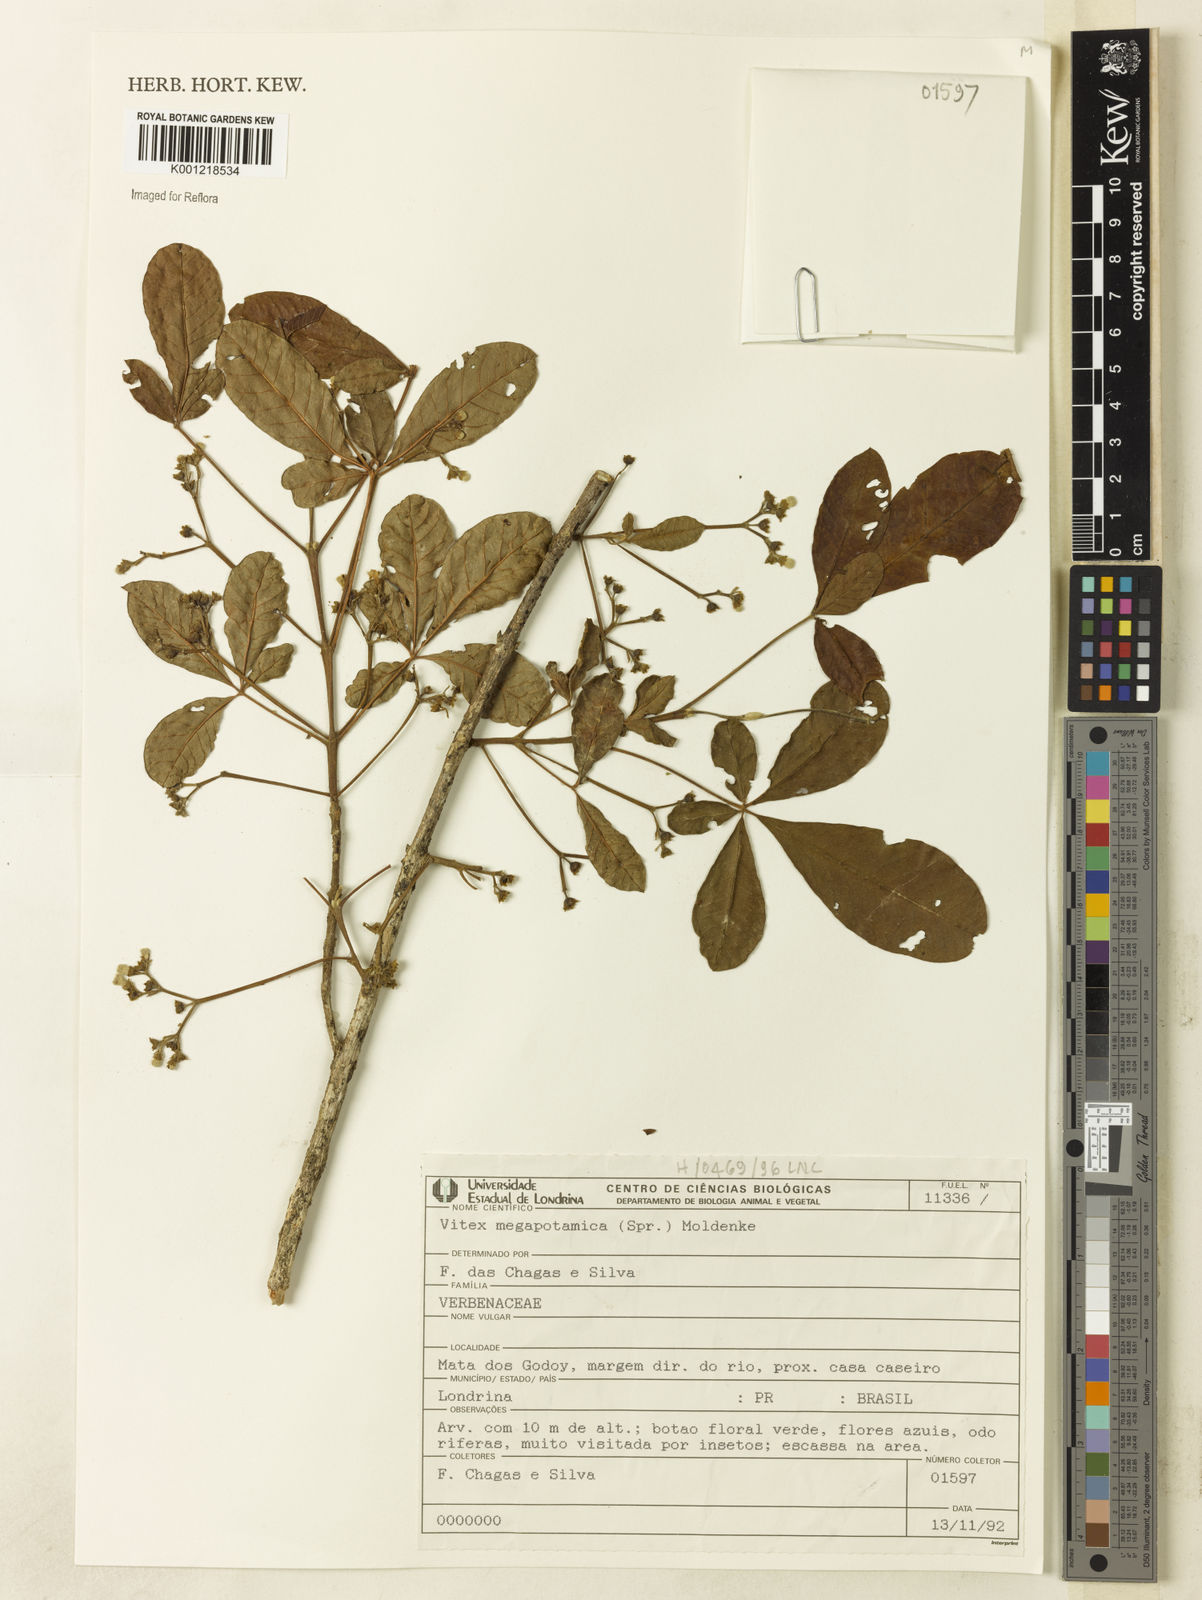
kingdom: Plantae
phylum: Tracheophyta
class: Magnoliopsida
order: Lamiales
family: Lamiaceae
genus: Vitex
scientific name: Vitex megapotamica
